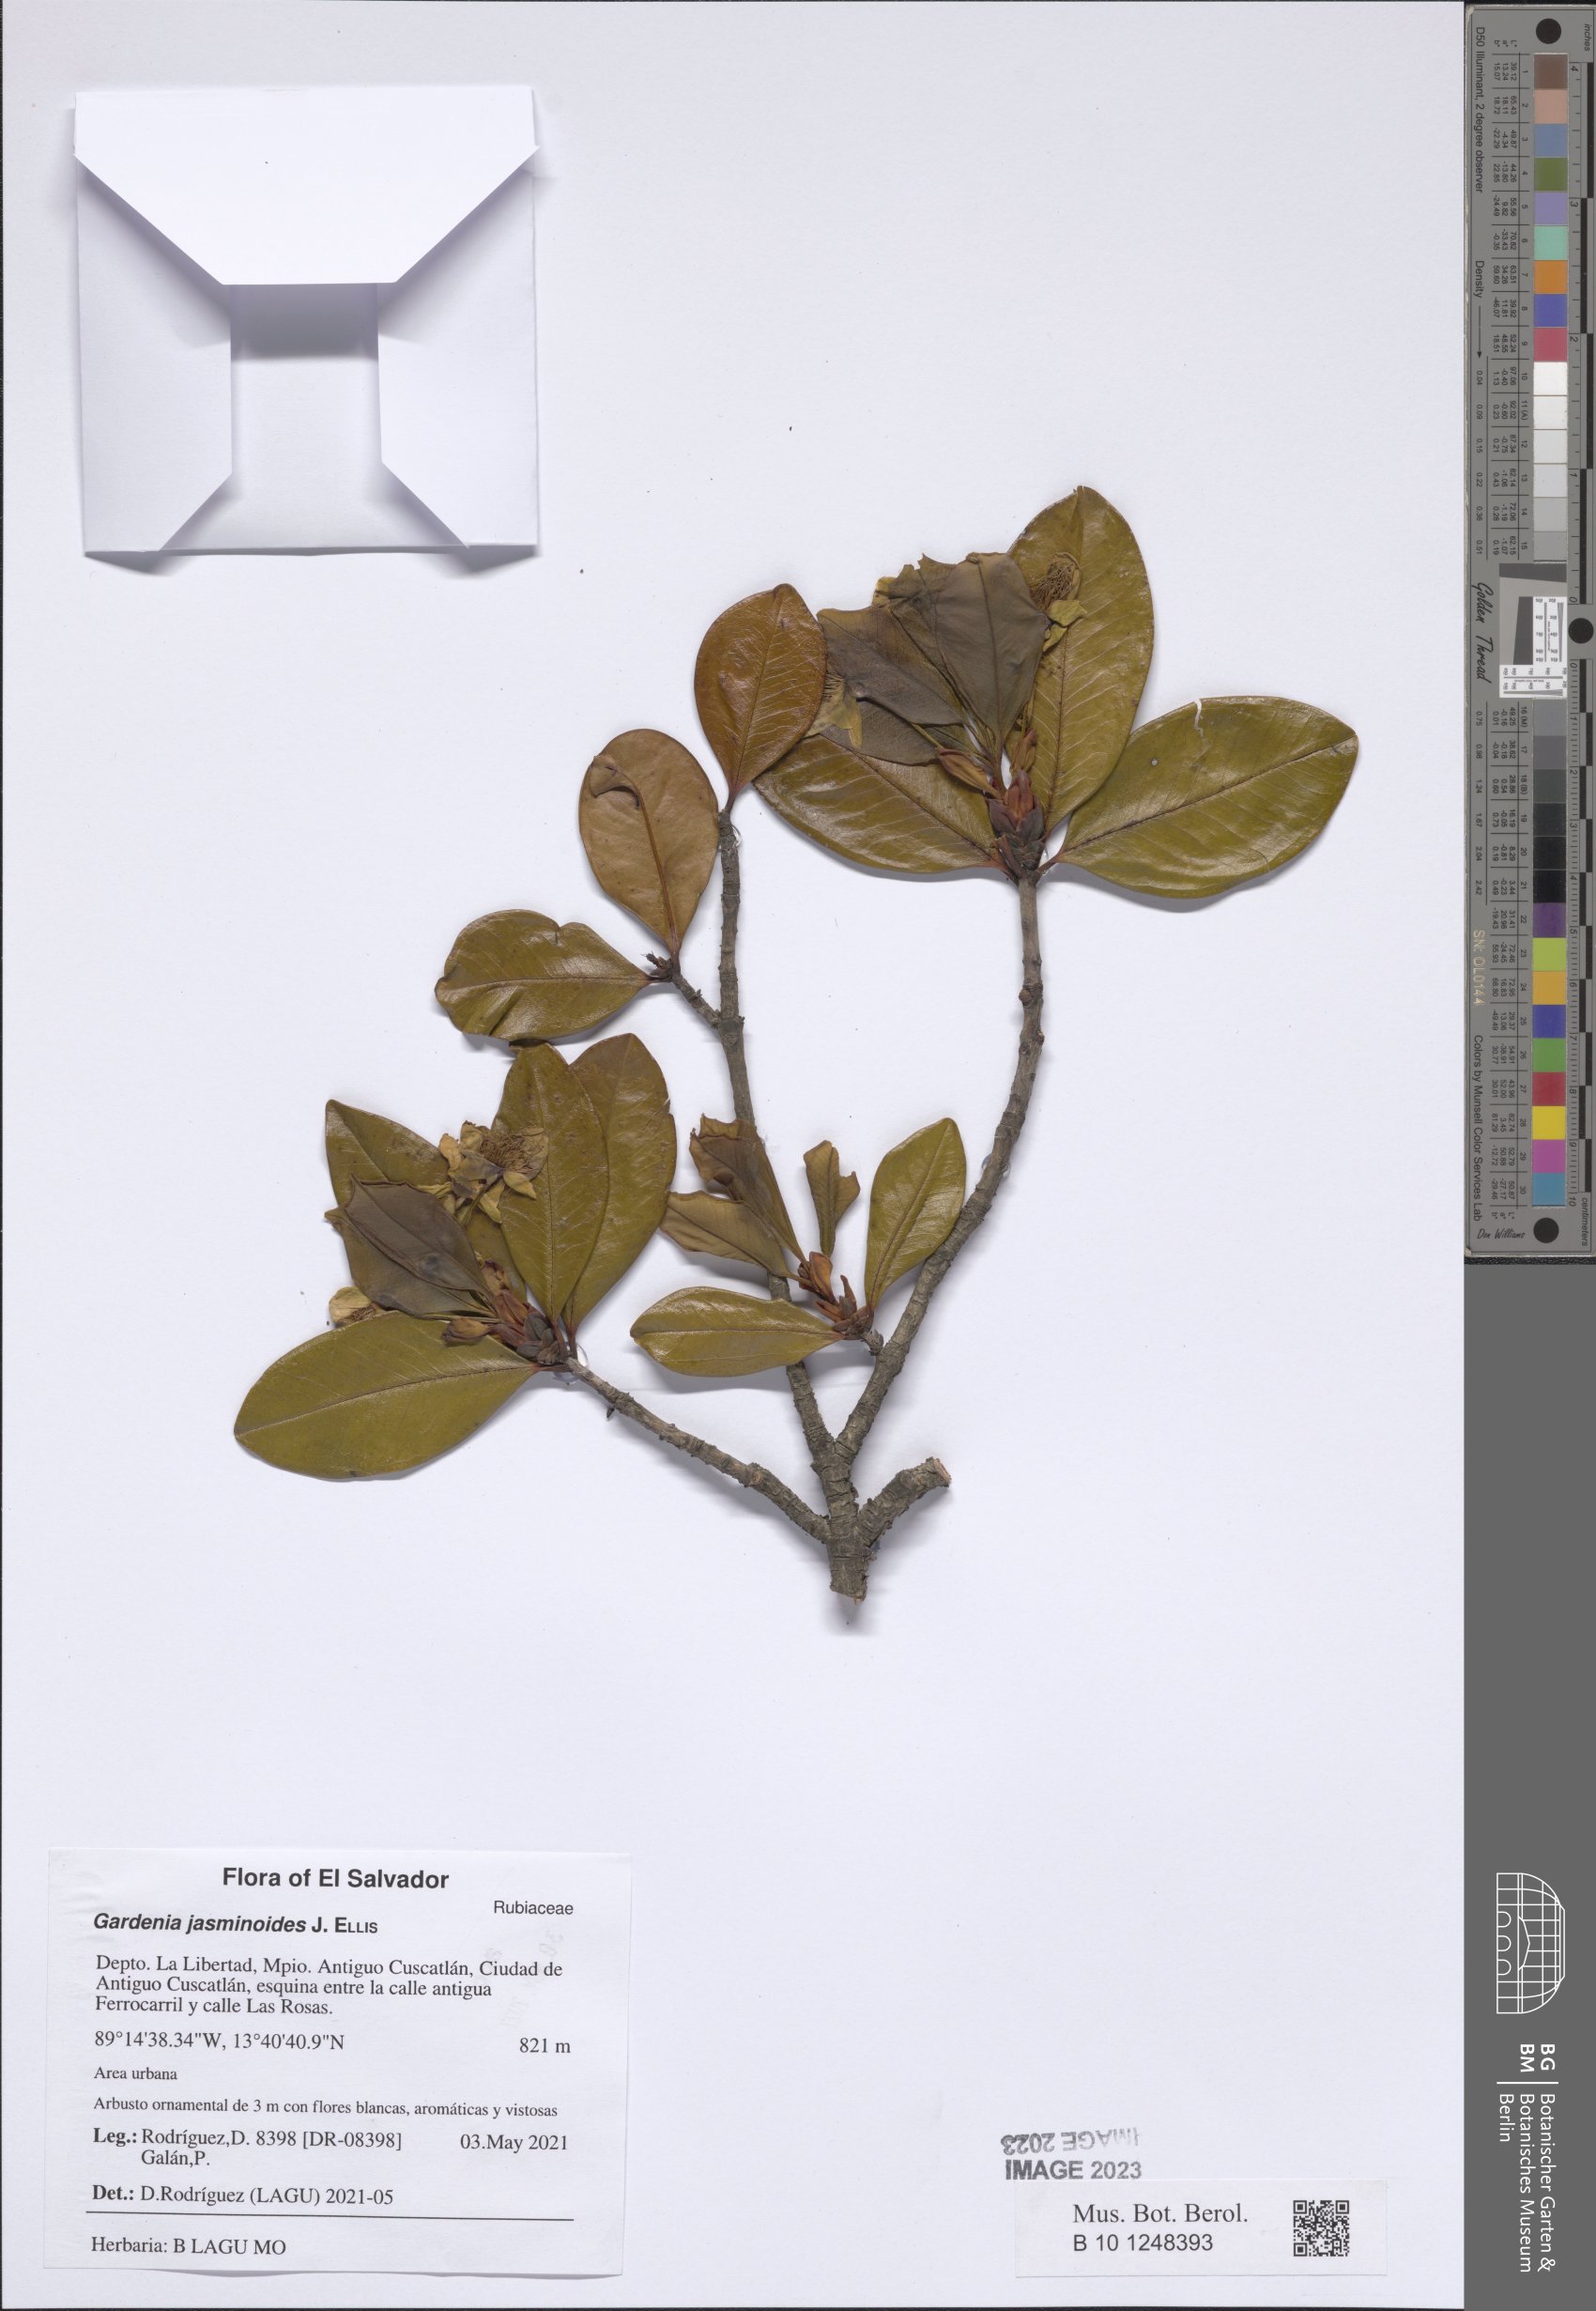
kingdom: Plantae
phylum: Tracheophyta
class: Magnoliopsida
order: Gentianales
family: Rubiaceae
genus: Gardenia
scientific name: Gardenia jasminoides
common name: Cape-jasmine
